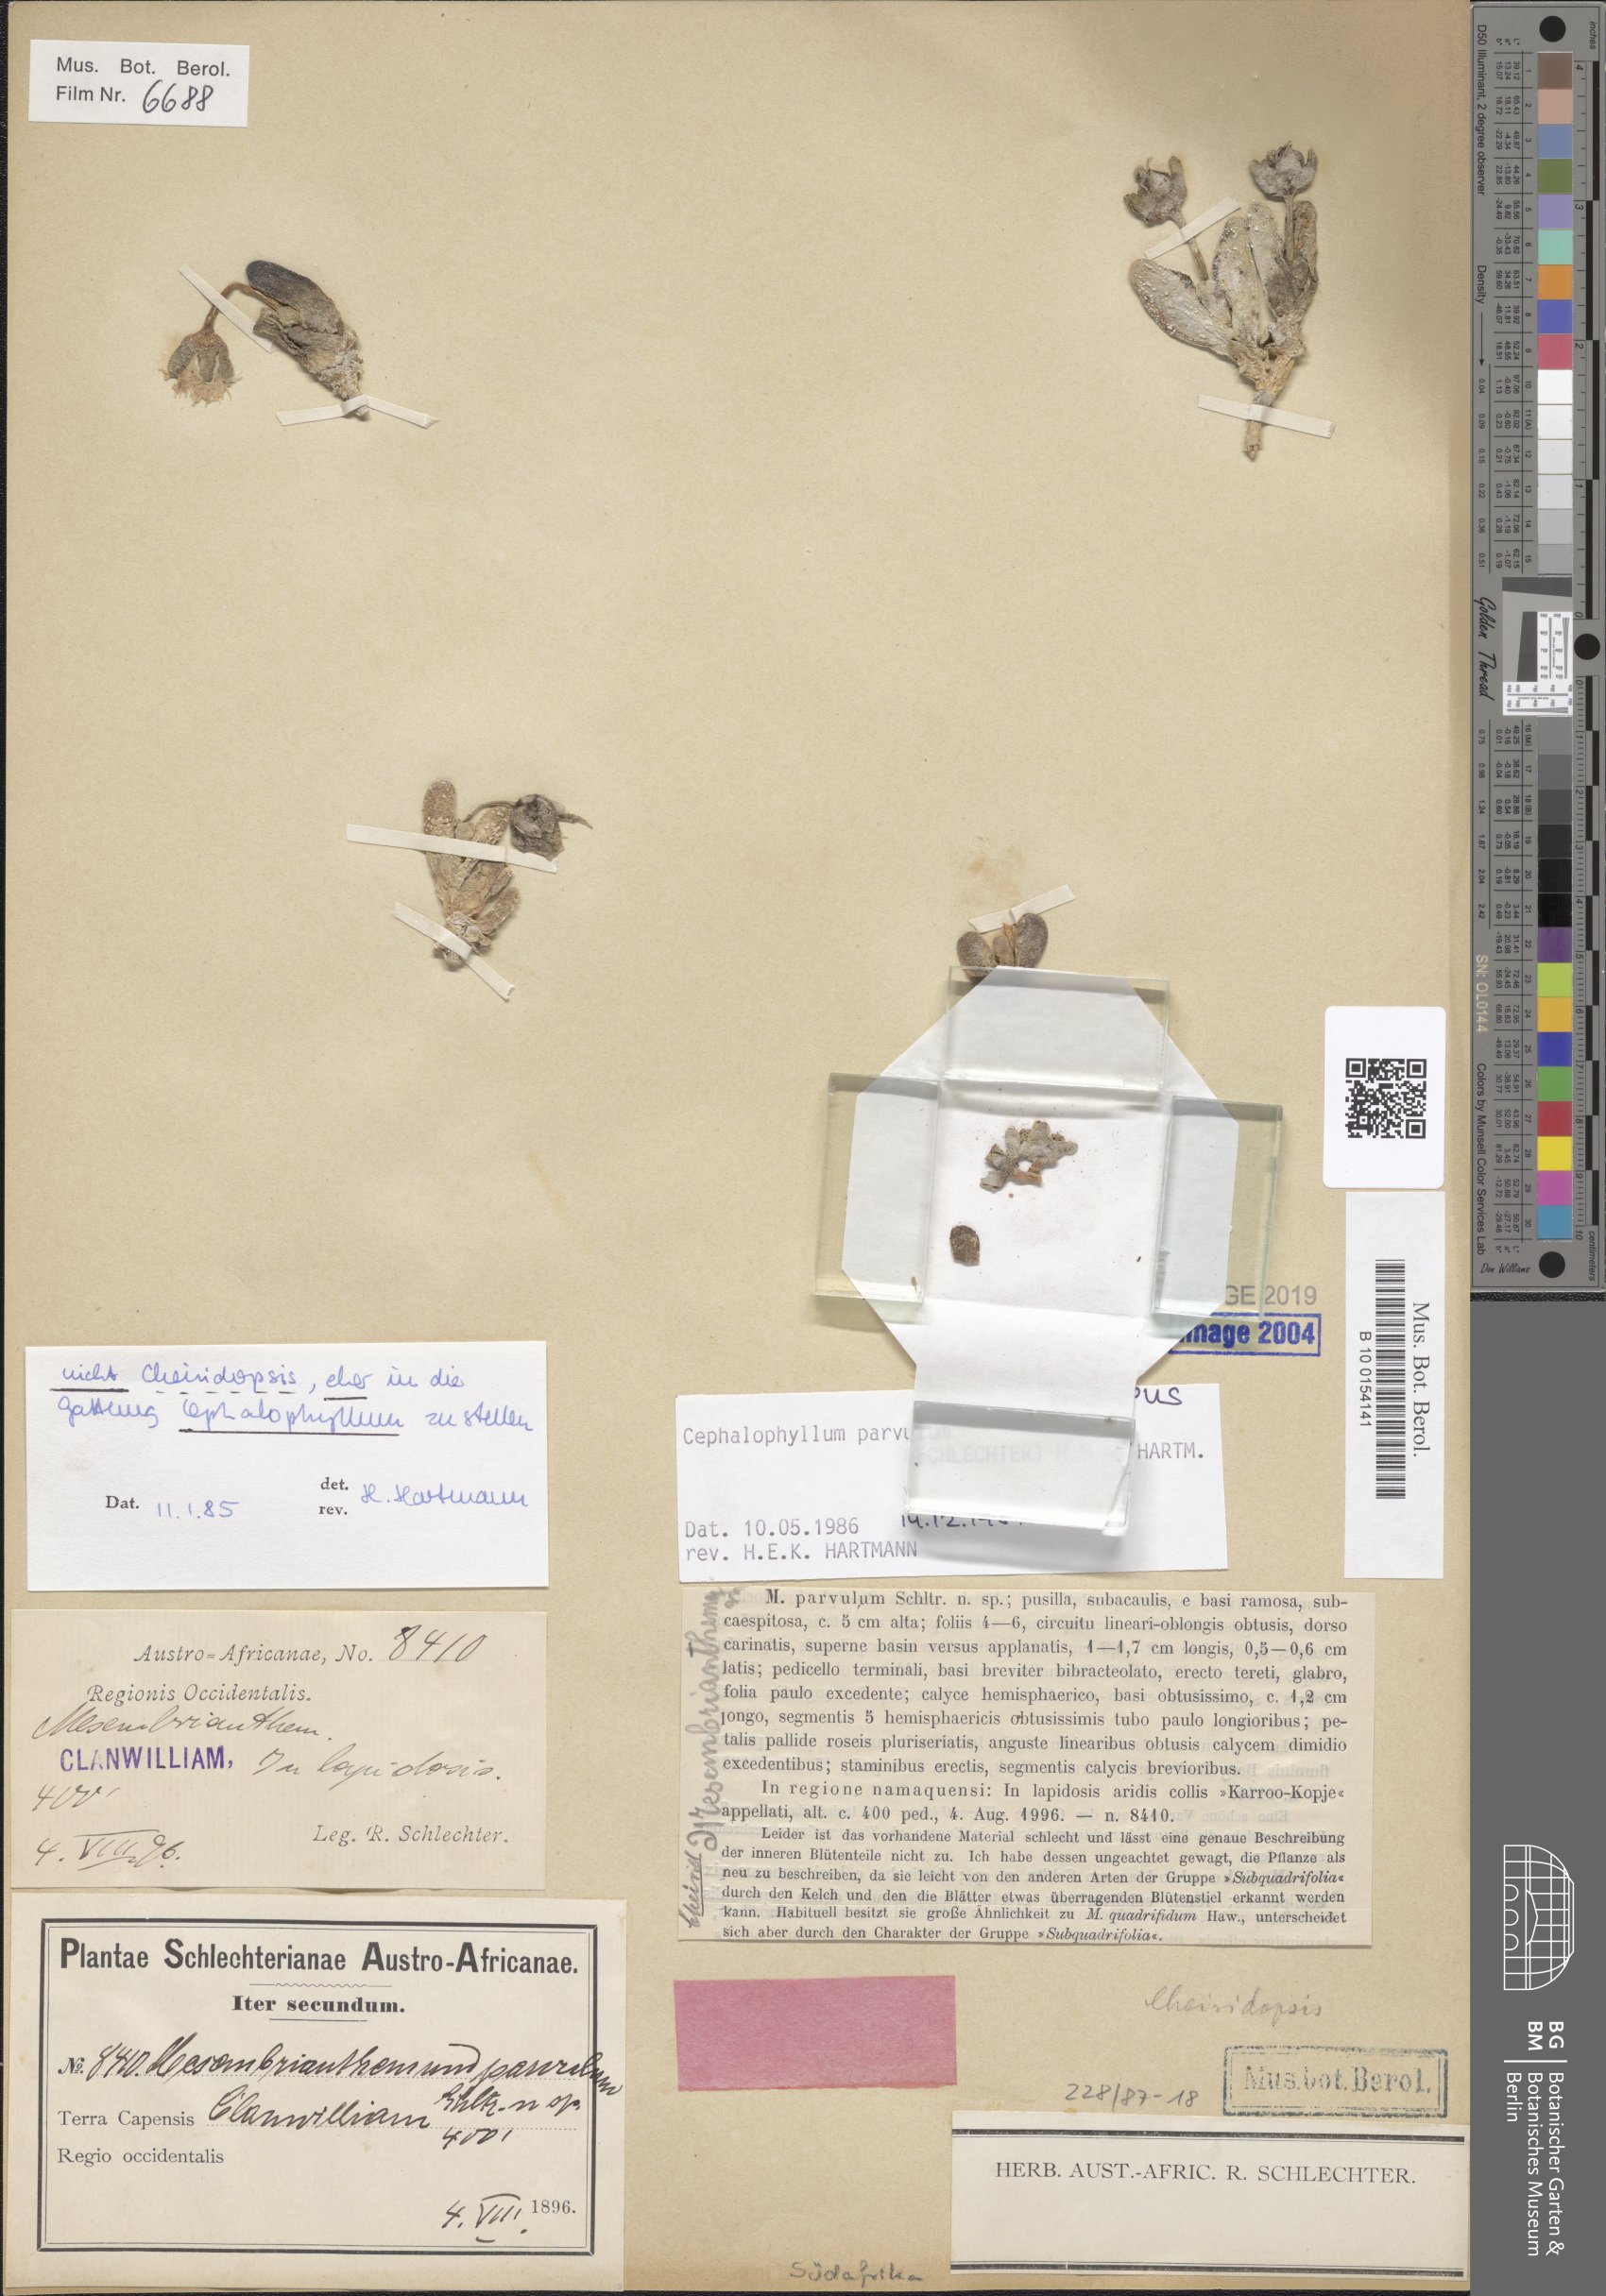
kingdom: Plantae
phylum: Tracheophyta
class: Magnoliopsida
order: Caryophyllales
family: Aizoaceae
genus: Cephalophyllum
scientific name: Cephalophyllum parvulum
